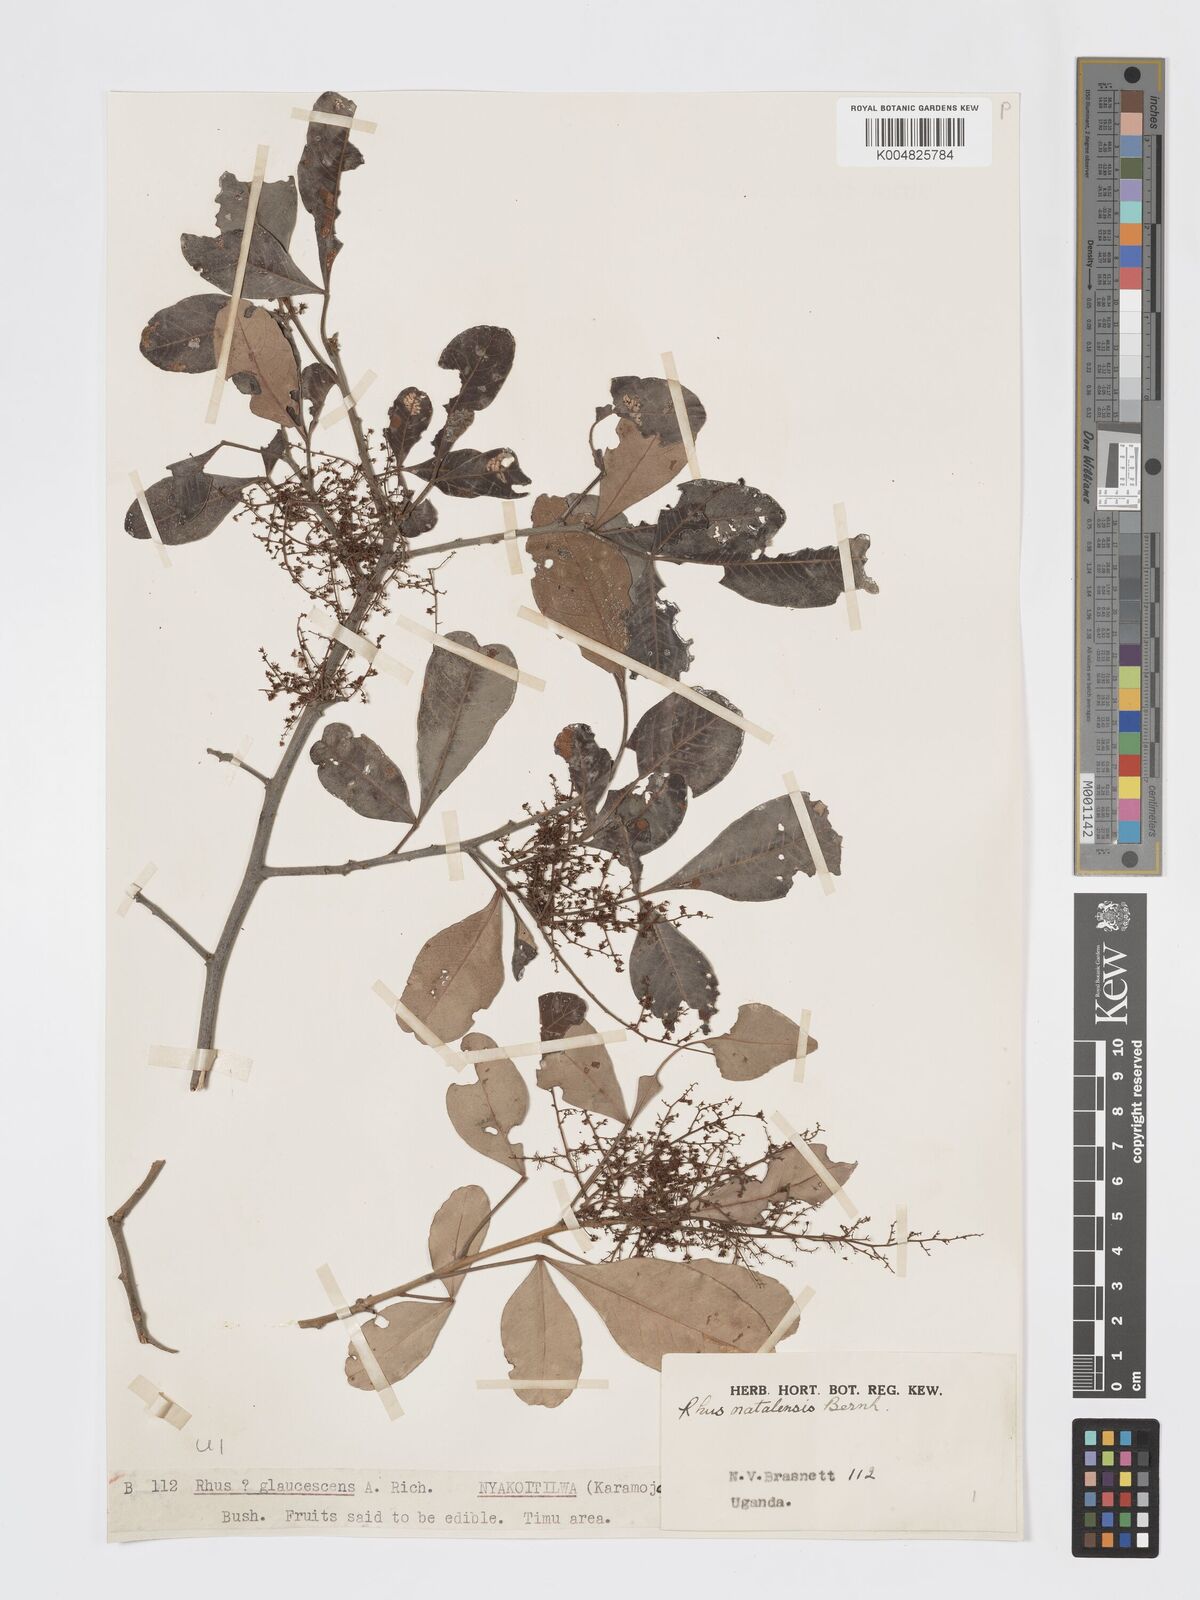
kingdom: Plantae
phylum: Tracheophyta
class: Magnoliopsida
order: Sapindales
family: Anacardiaceae
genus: Searsia
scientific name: Searsia natalensis
